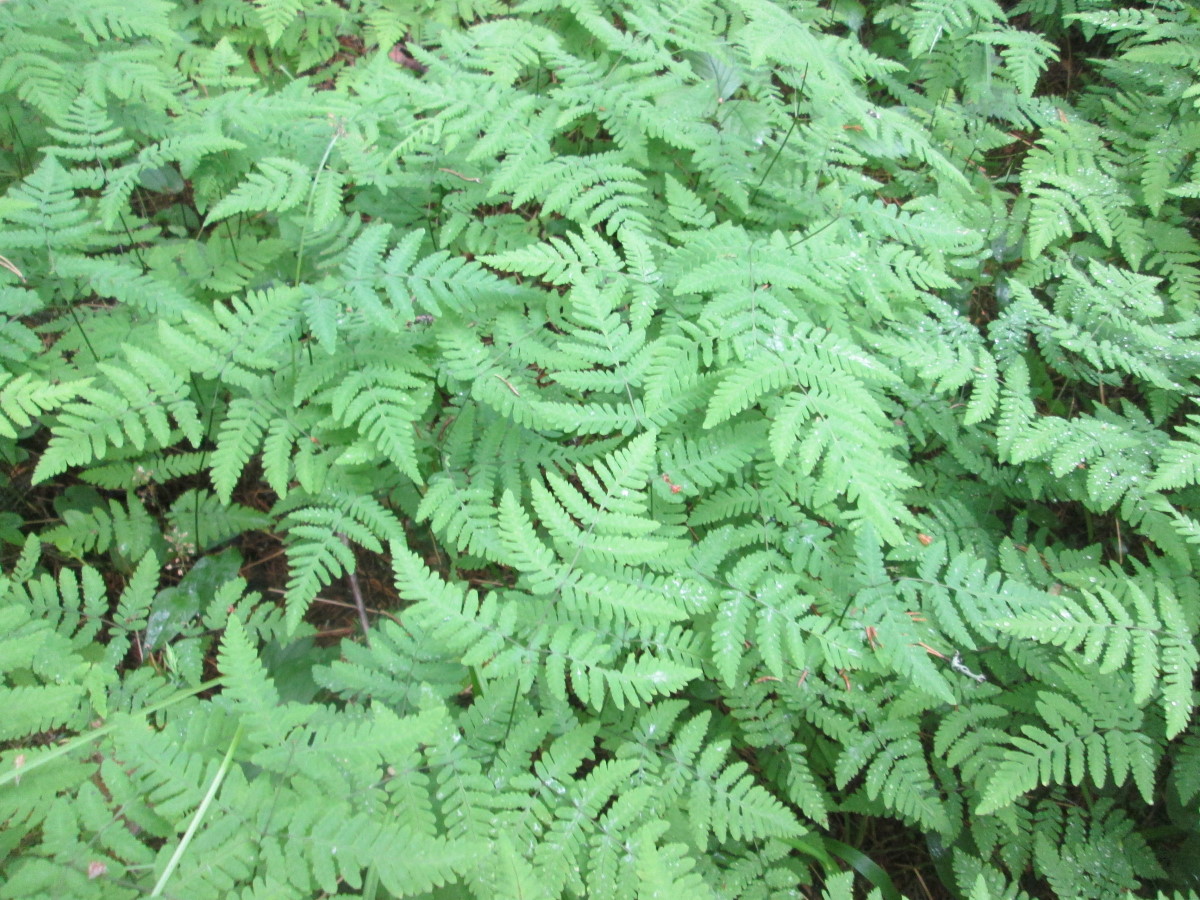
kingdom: Plantae
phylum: Tracheophyta
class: Polypodiopsida
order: Polypodiales
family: Cystopteridaceae
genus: Gymnocarpium
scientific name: Gymnocarpium dryopteris
